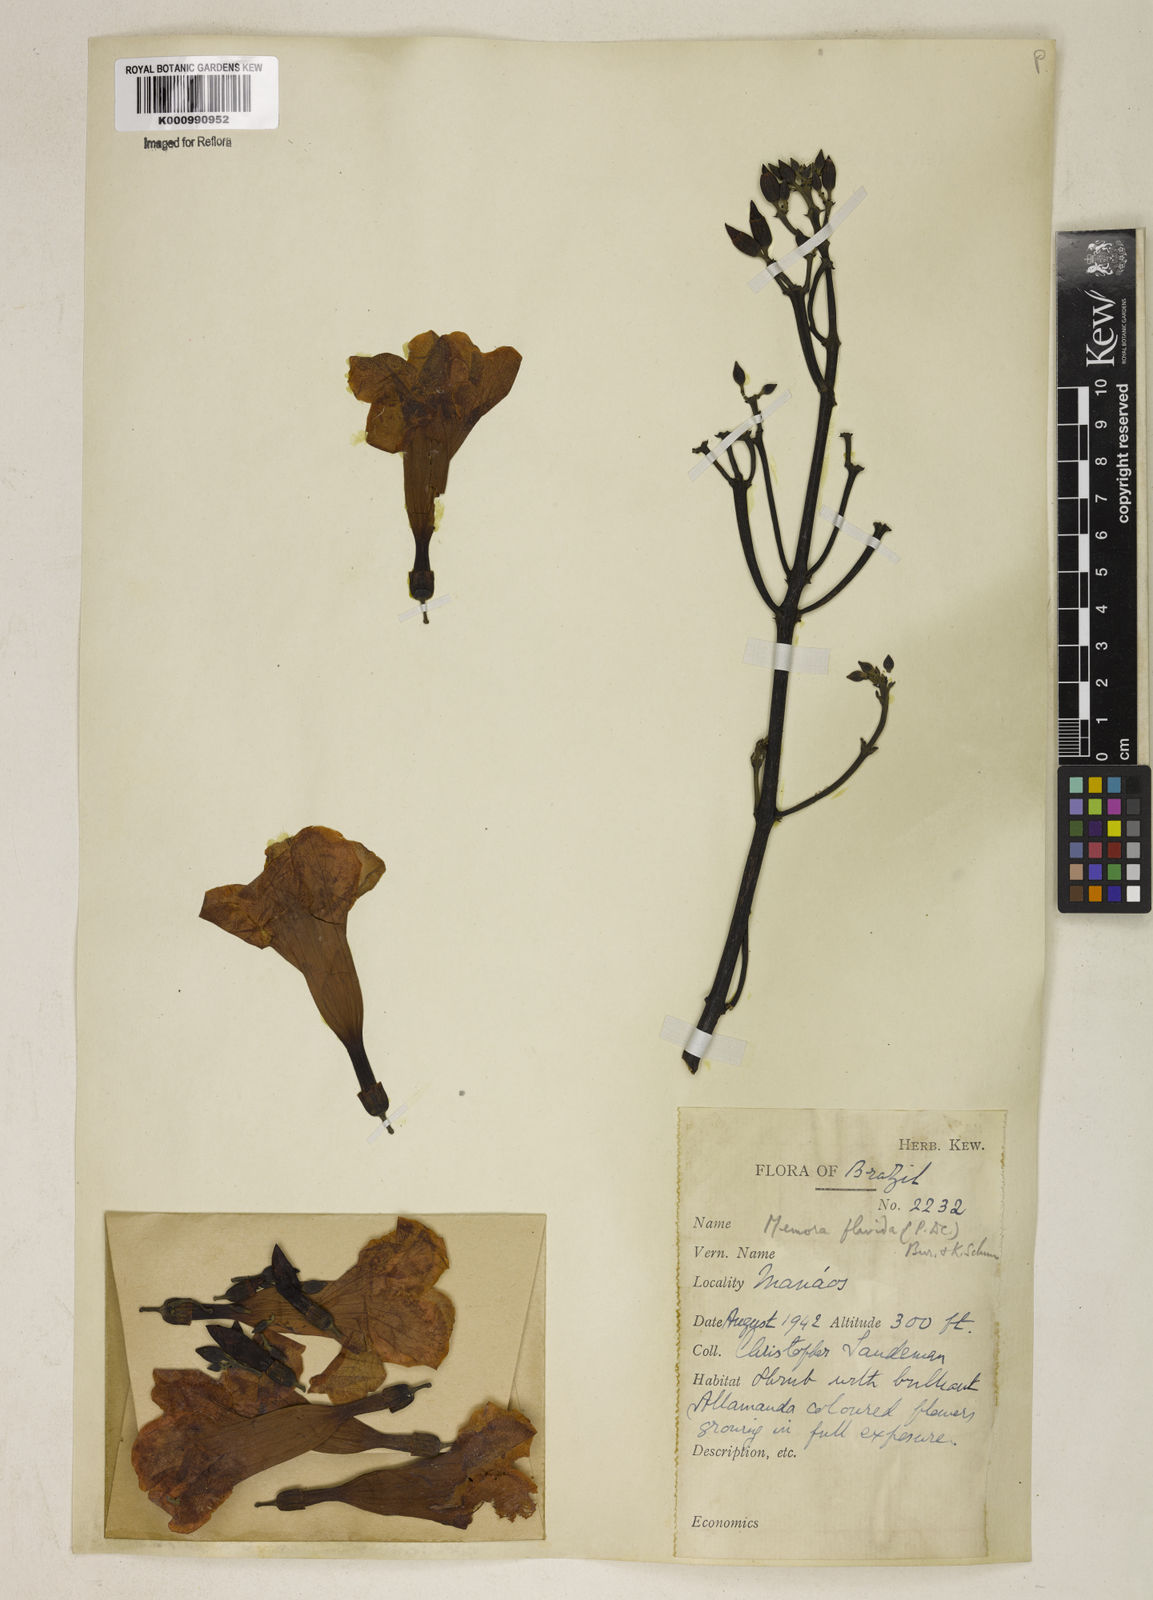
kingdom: Plantae
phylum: Tracheophyta
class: Magnoliopsida
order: Lamiales
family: Bignoniaceae
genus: Adenocalymma
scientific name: Adenocalymma neoflavidum
